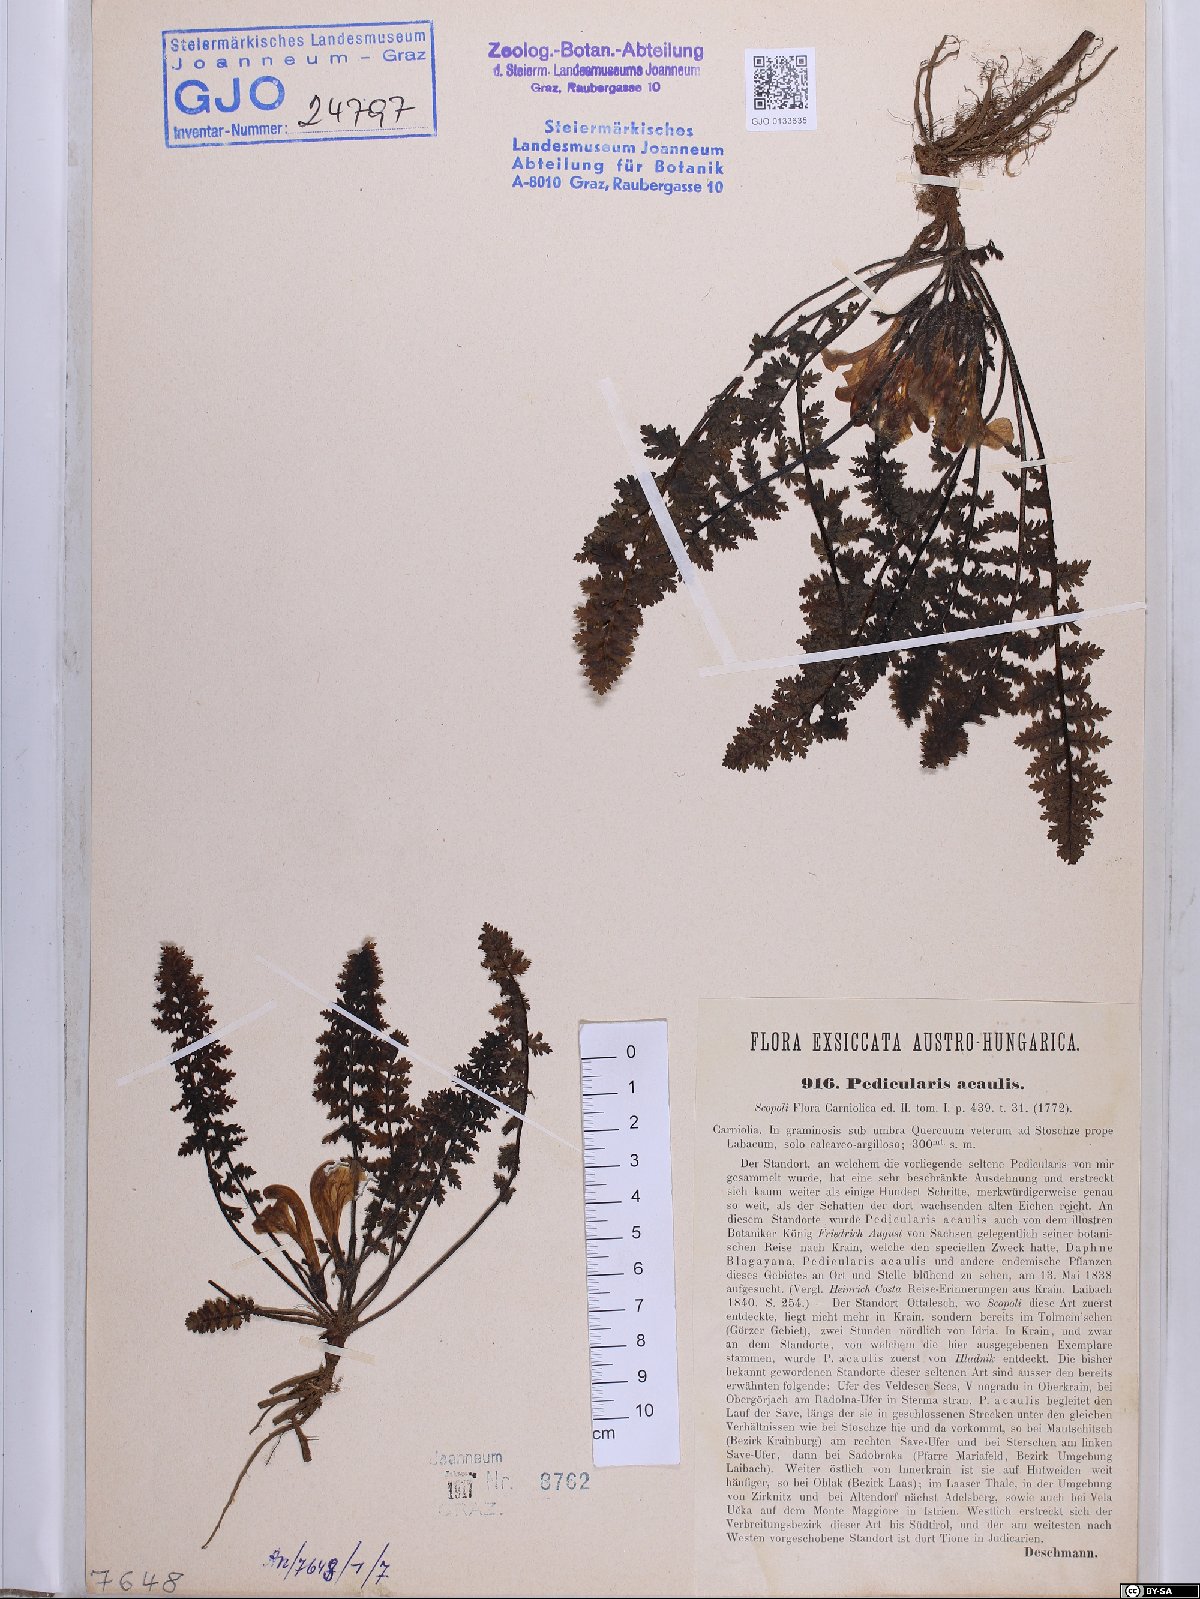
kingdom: Plantae
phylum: Tracheophyta
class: Magnoliopsida
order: Lamiales
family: Orobanchaceae
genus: Pedicularis
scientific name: Pedicularis acaulis
